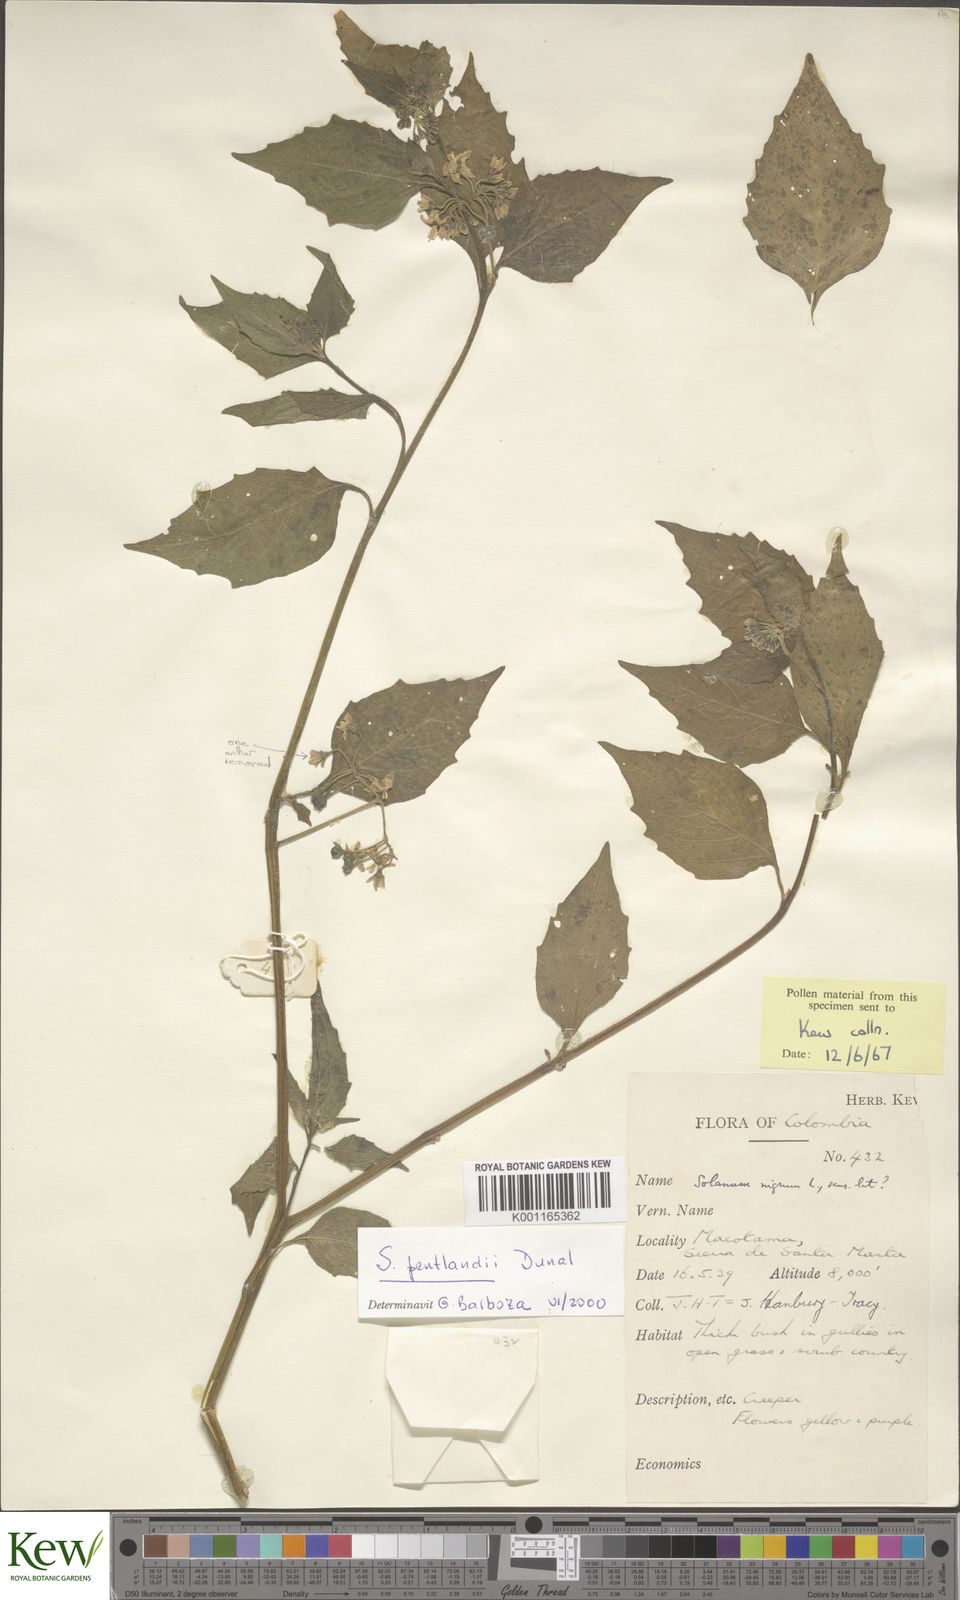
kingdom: Plantae
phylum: Tracheophyta
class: Magnoliopsida
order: Solanales
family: Solanaceae
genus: Solanum
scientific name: Solanum pentlandii
